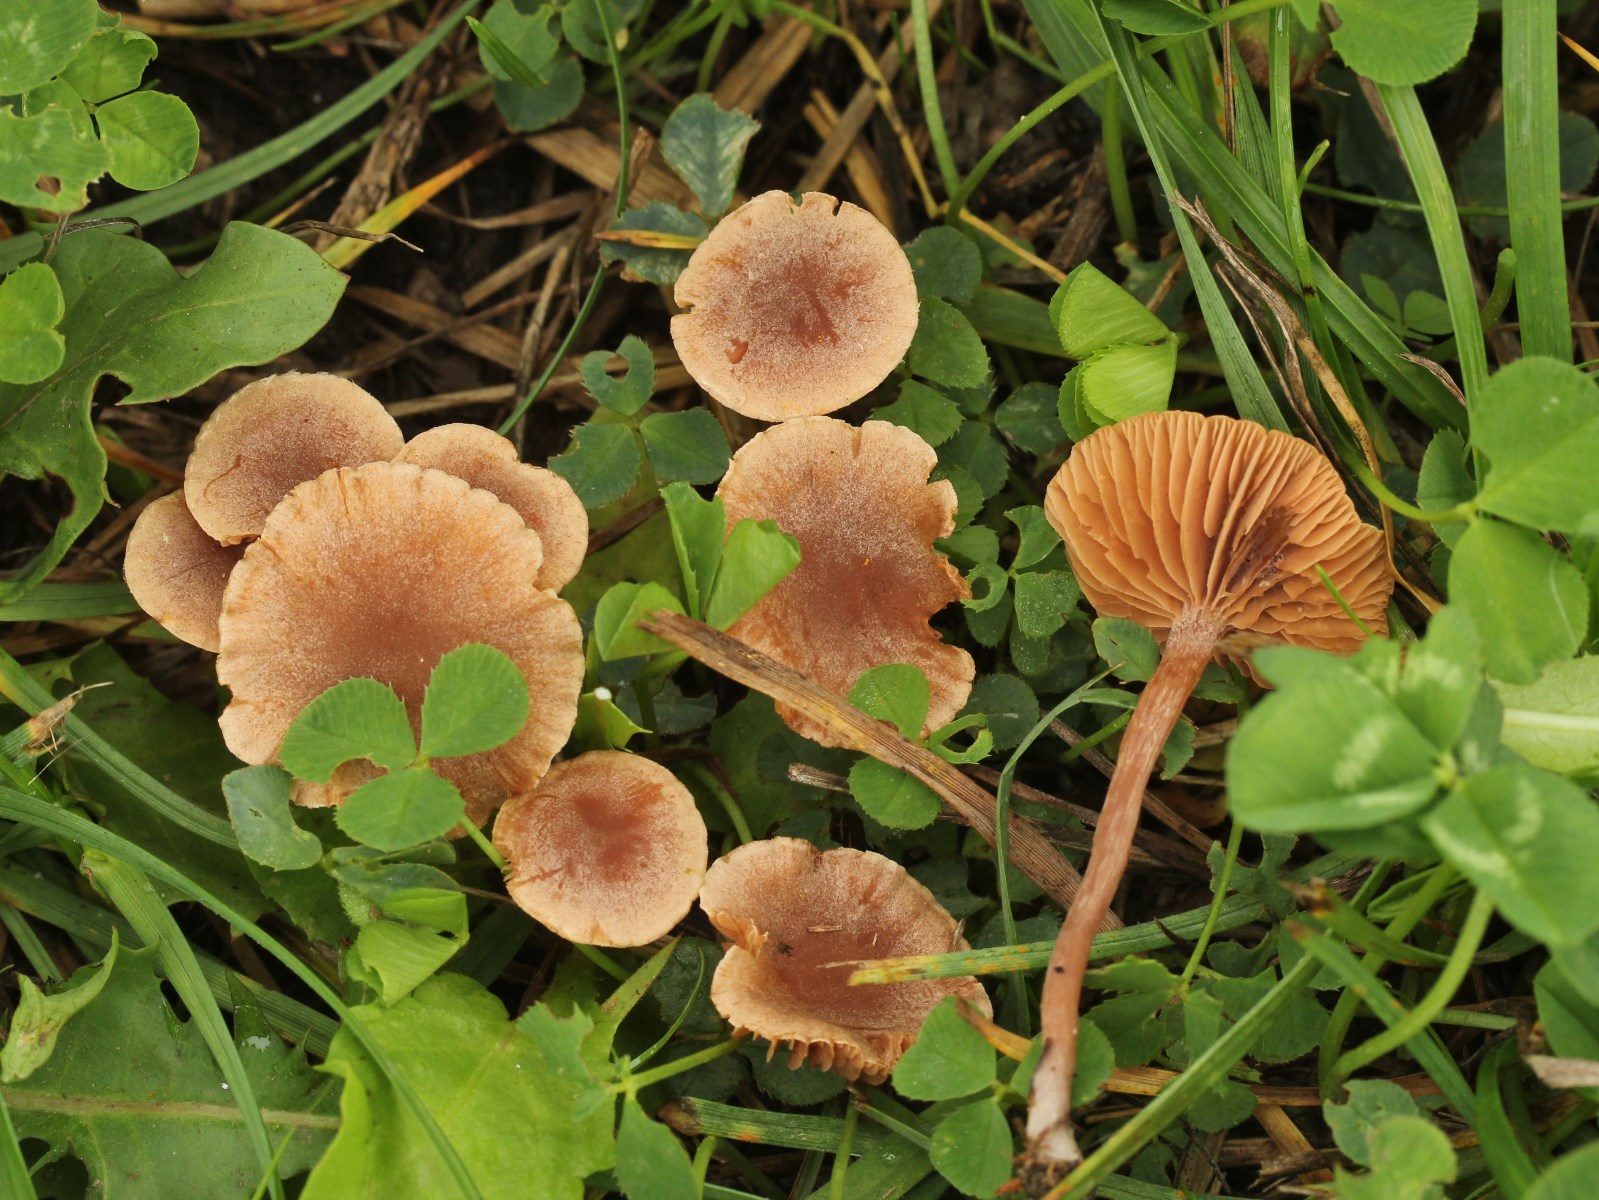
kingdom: Fungi
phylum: Basidiomycota
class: Agaricomycetes
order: Agaricales
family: Tubariaceae
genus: Tubaria
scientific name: Tubaria furfuracea
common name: kliddet fnughat
